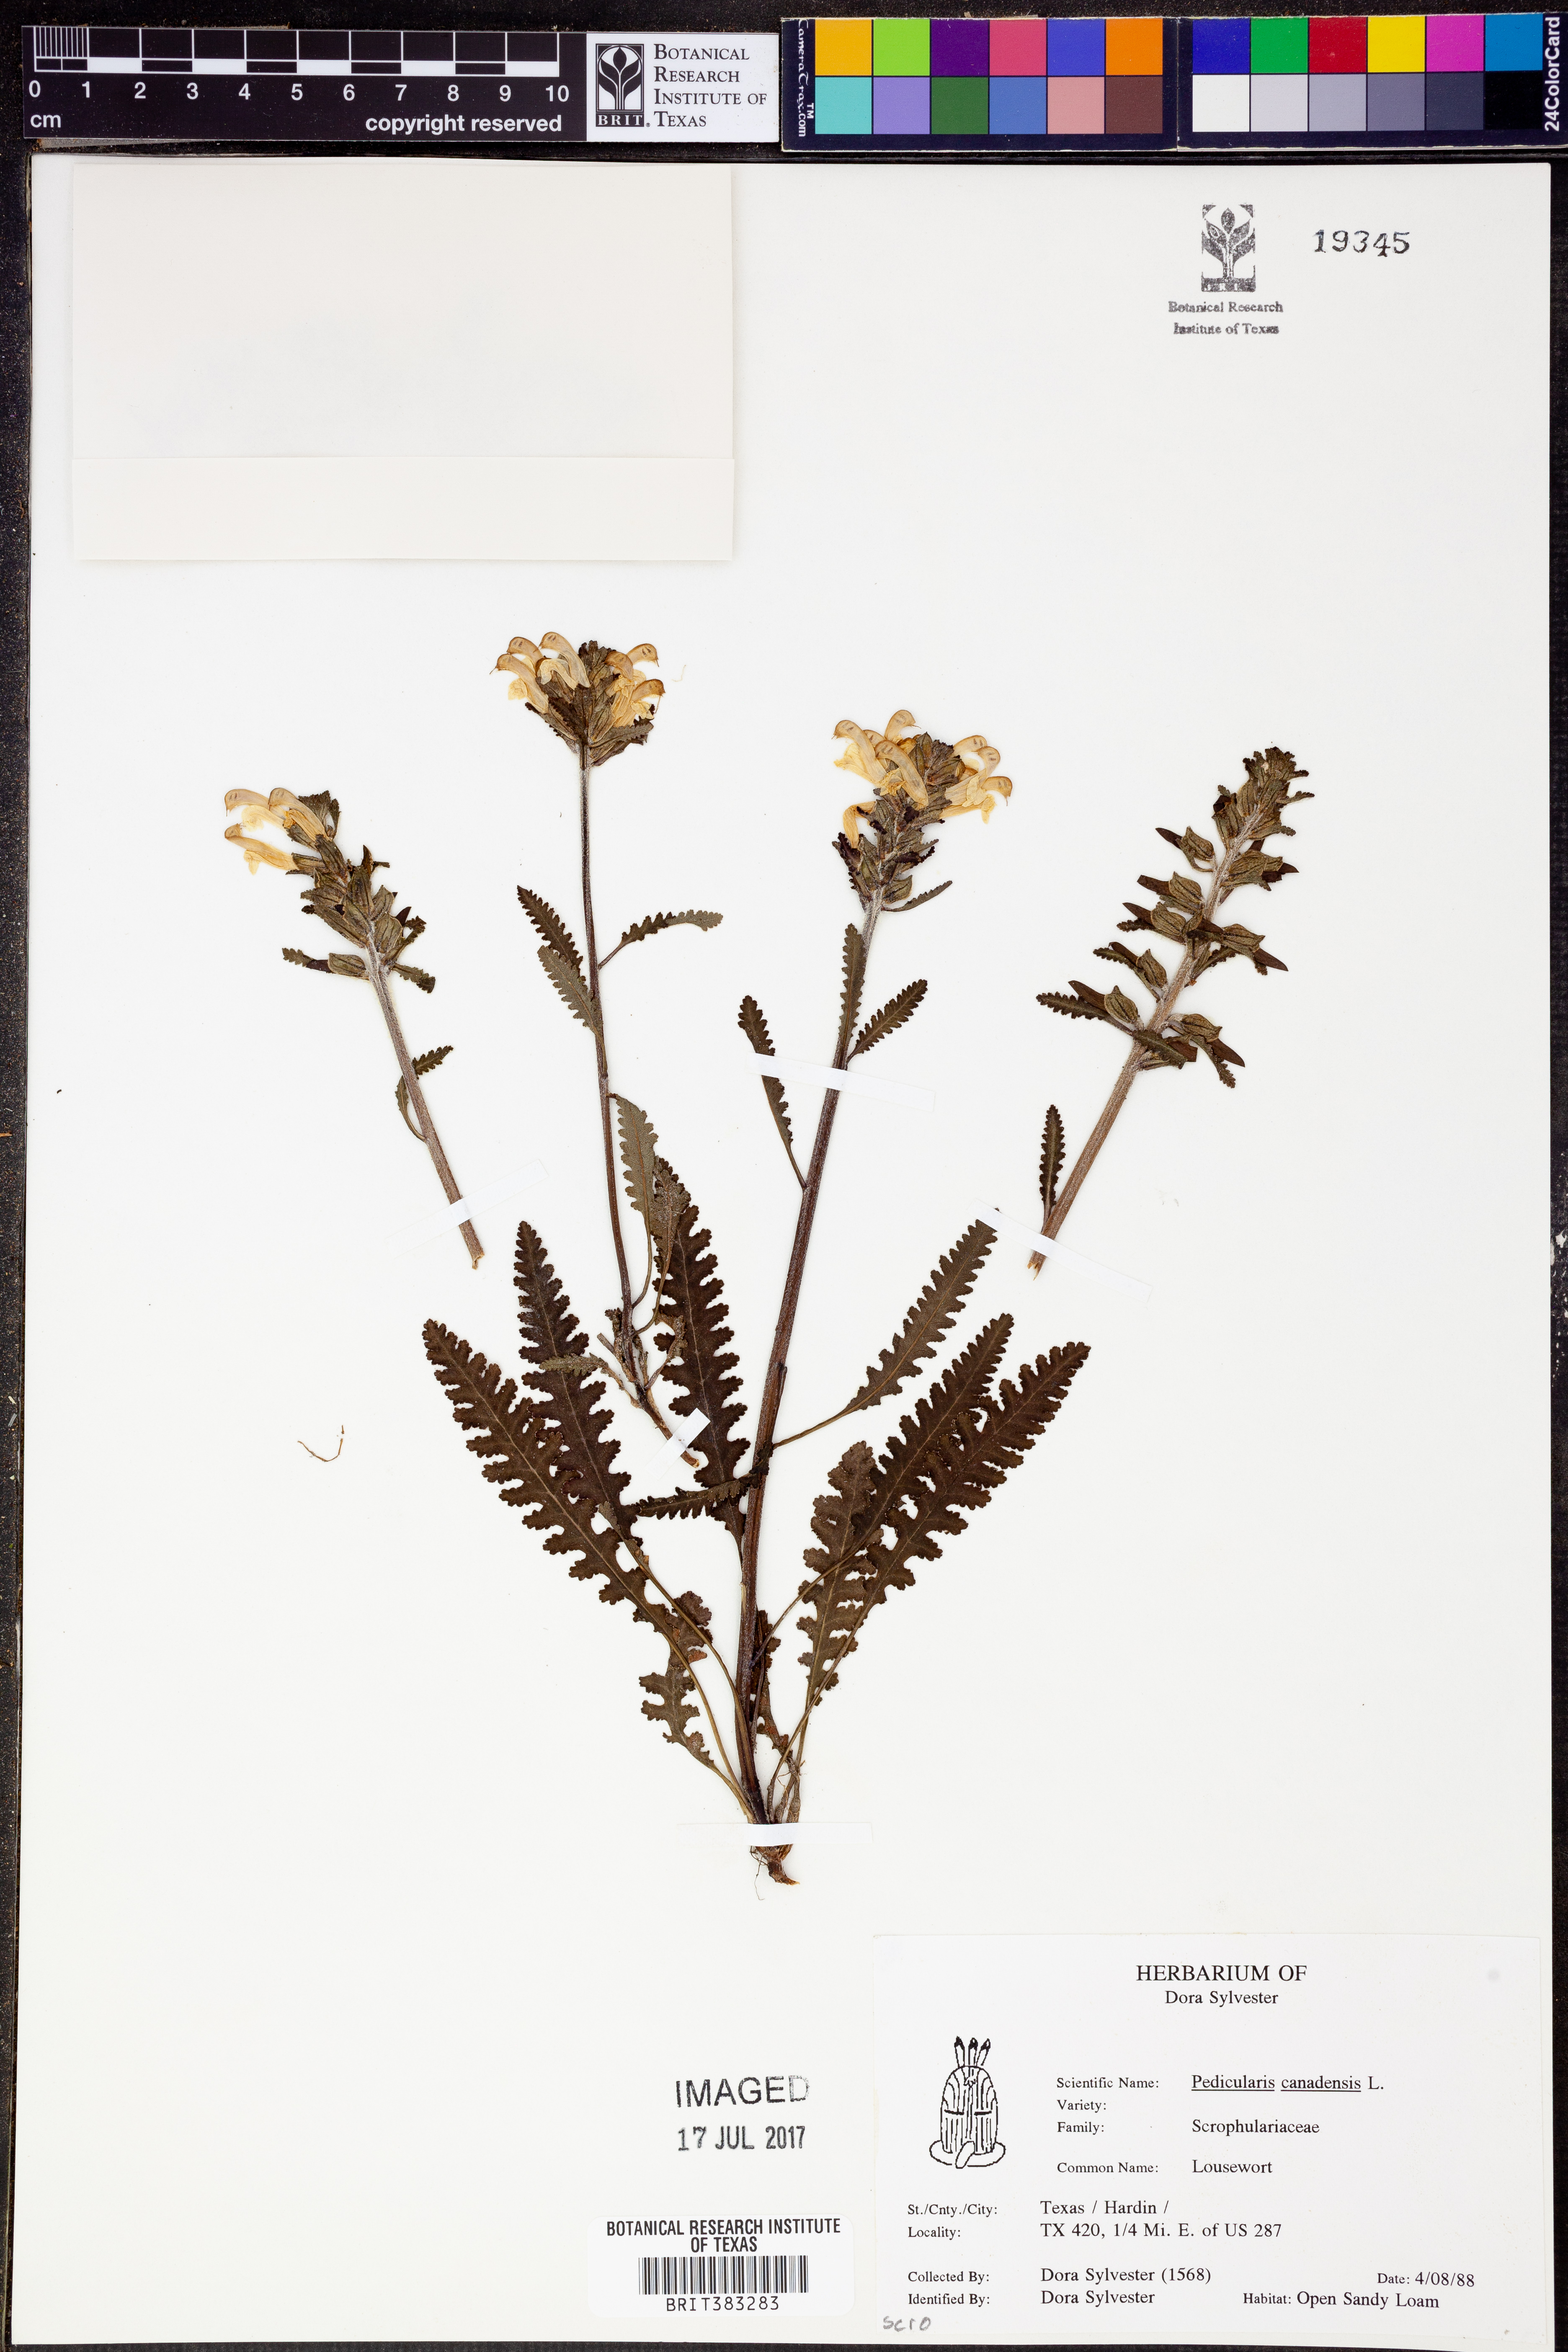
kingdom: Plantae
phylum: Tracheophyta
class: Magnoliopsida
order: Lamiales
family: Orobanchaceae
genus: Pedicularis
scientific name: Pedicularis canadensis
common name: Early lousewort
